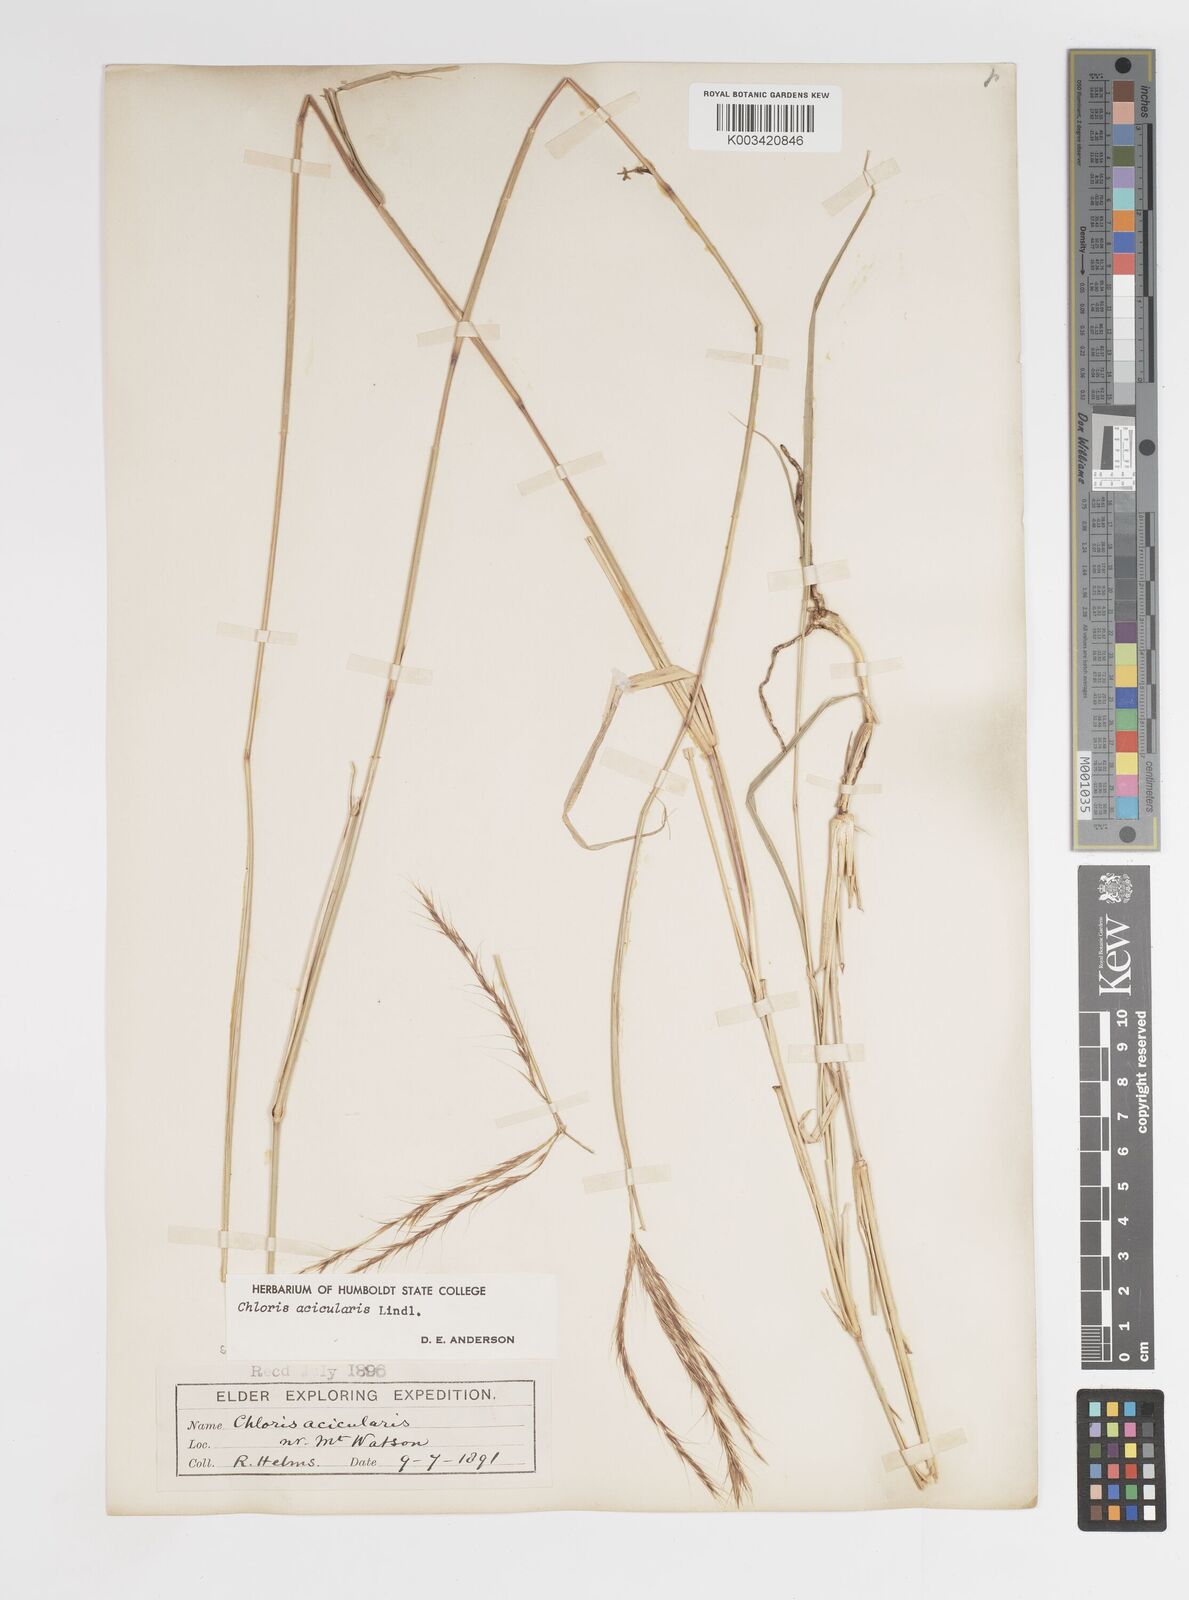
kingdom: Plantae
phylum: Tracheophyta
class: Liliopsida
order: Poales
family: Poaceae
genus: Enteropogon
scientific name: Enteropogon acicularis
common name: Curly windmill grass
